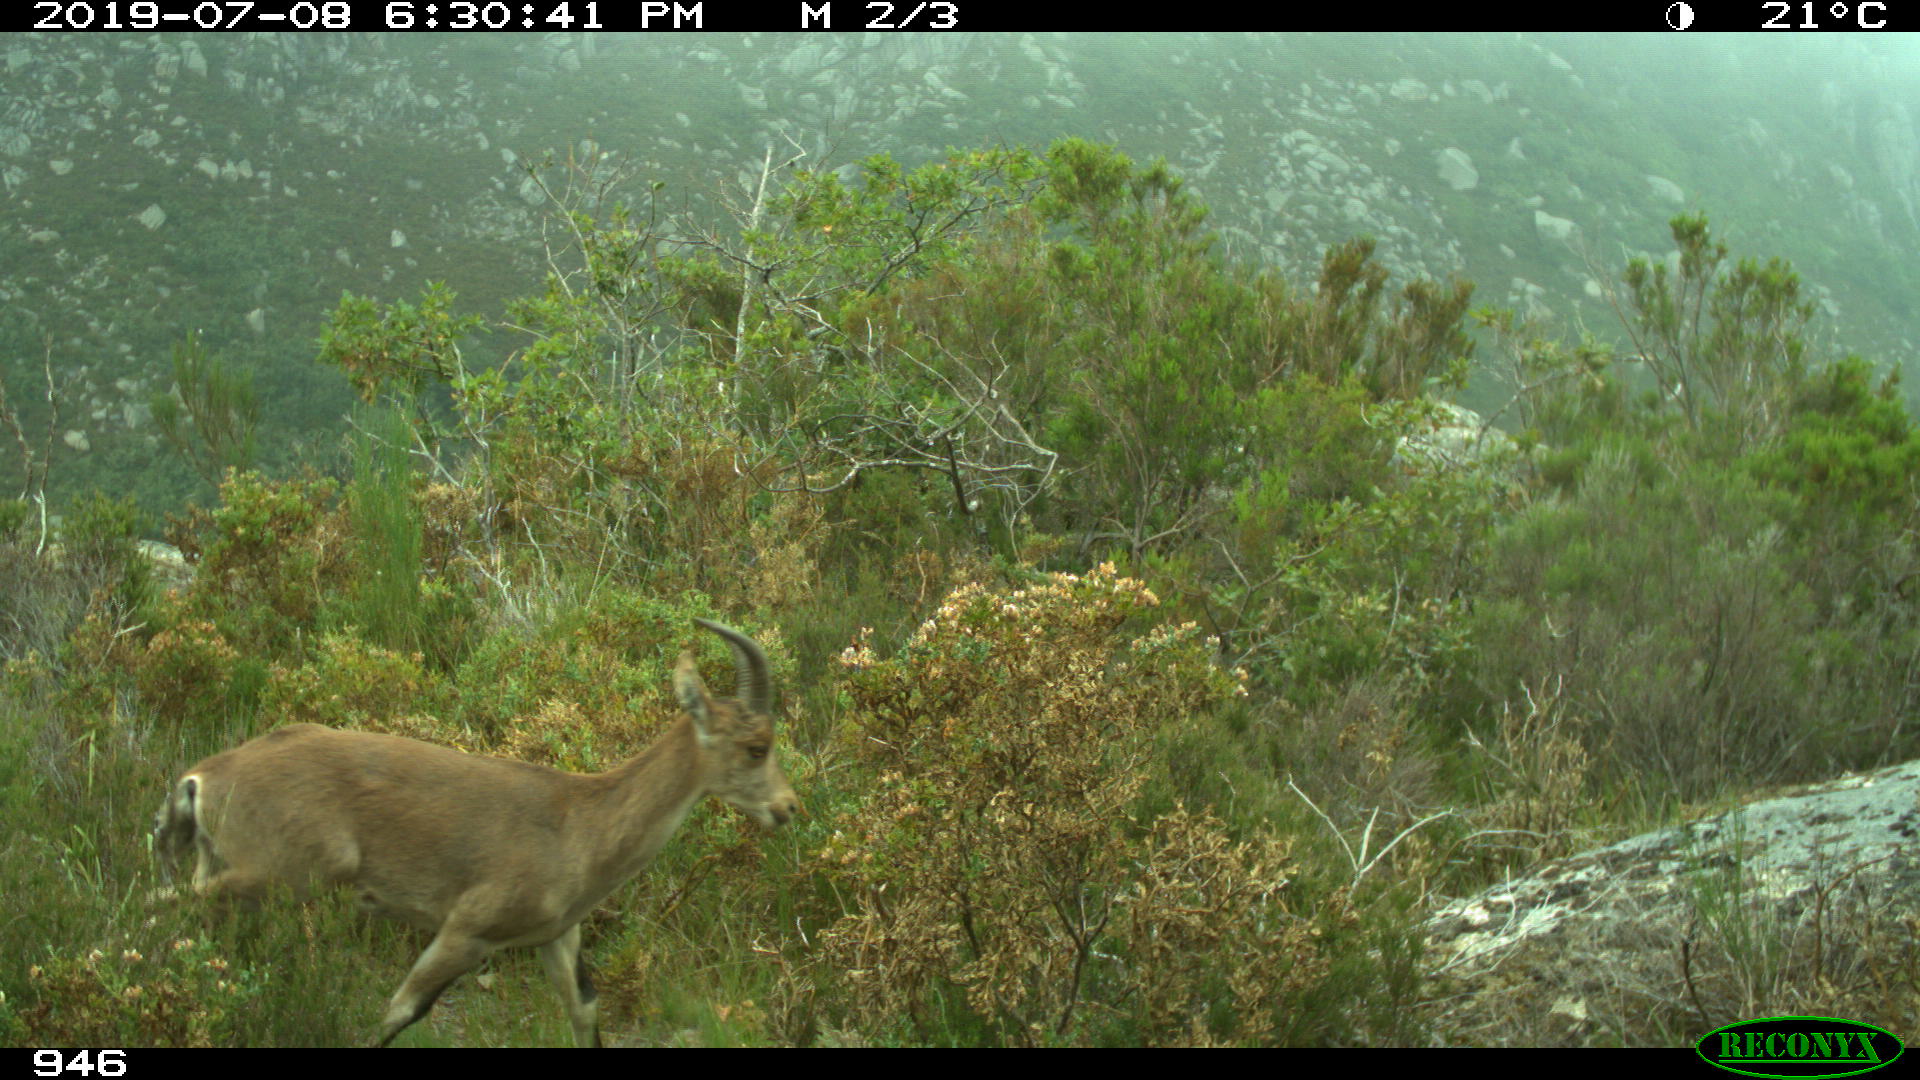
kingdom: Animalia
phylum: Chordata
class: Mammalia
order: Artiodactyla
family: Bovidae
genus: Capra
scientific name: Capra pyrenaica
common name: Spanish ibex
